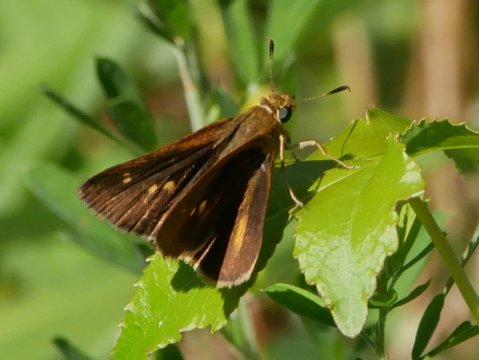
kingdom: Animalia
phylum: Arthropoda
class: Insecta
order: Lepidoptera
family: Hesperiidae
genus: Euphyes
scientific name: Euphyes dion
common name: Dion Skipper
